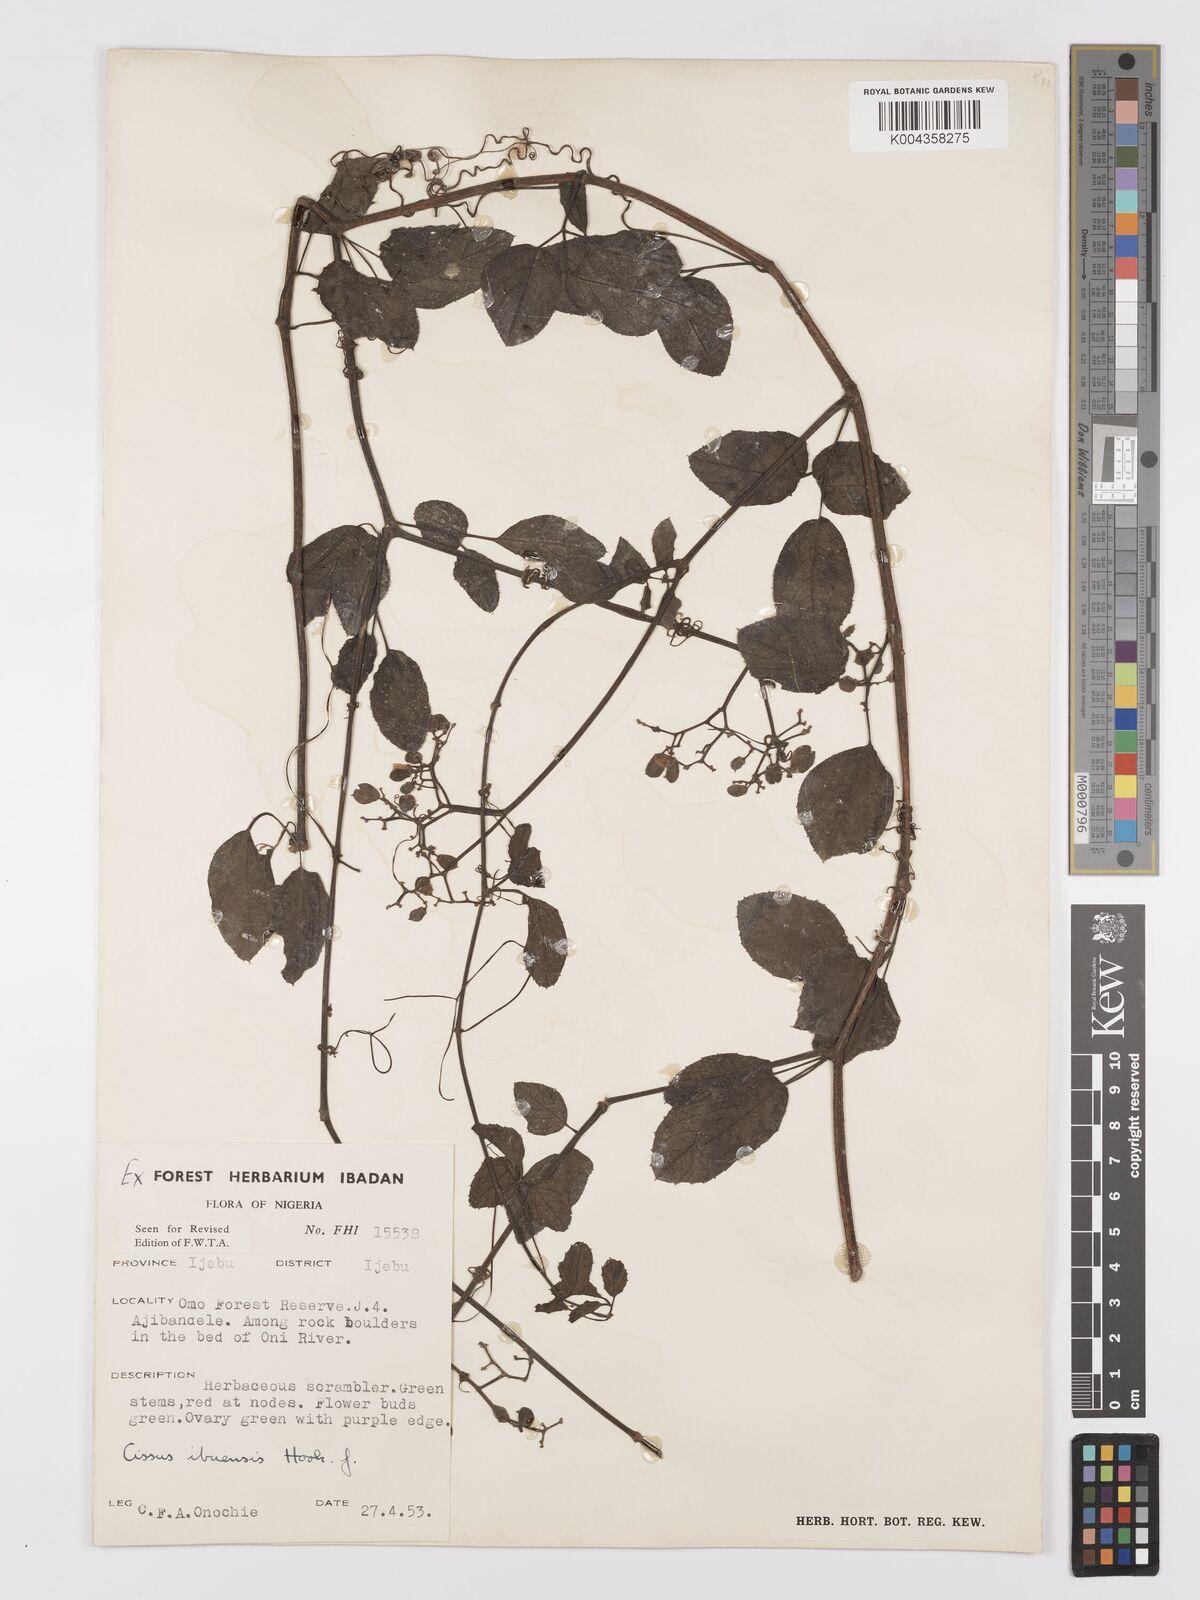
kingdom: Plantae
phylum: Tracheophyta
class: Magnoliopsida
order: Vitales
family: Vitaceae
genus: Afrocayratia
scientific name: Afrocayratia ibuensis
